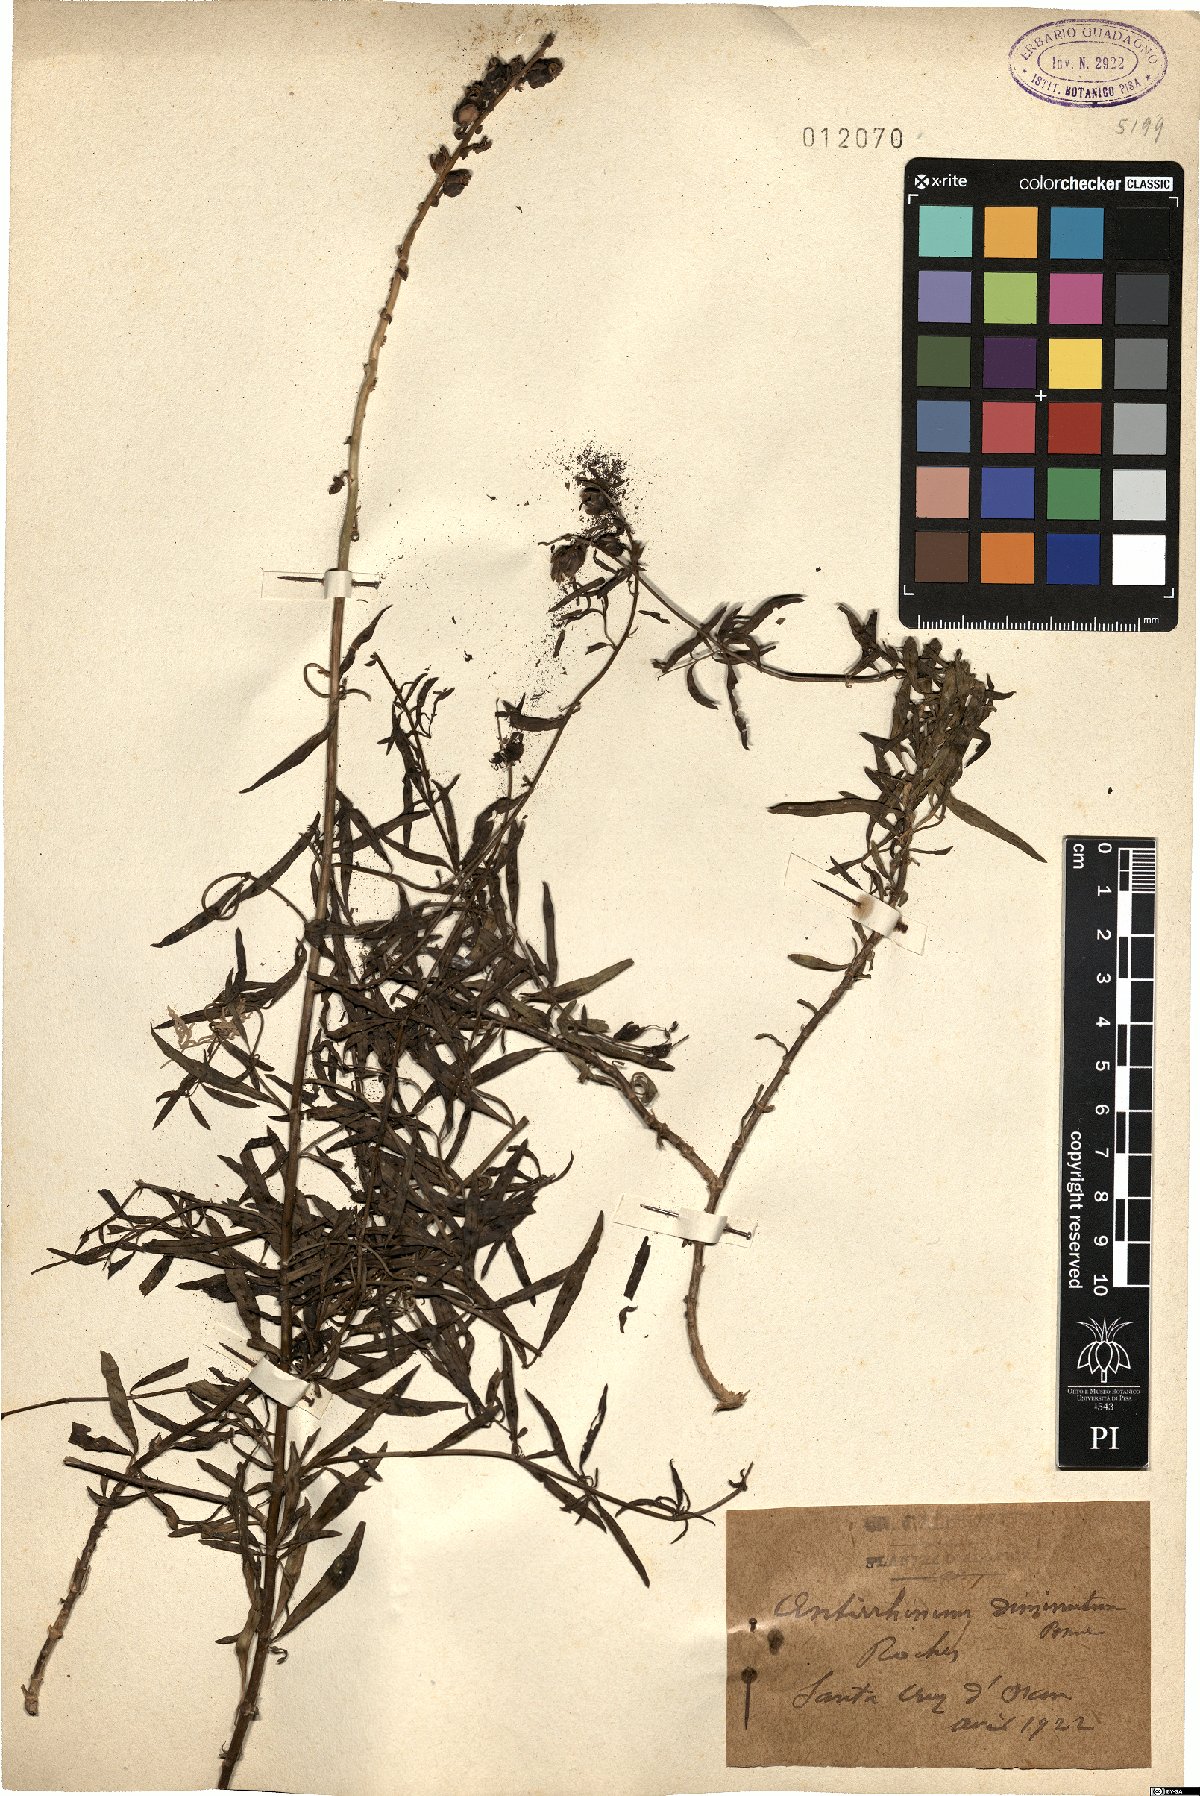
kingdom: Plantae
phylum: Tracheophyta
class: Magnoliopsida
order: Lamiales
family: Plantaginaceae
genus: Antirrhinum
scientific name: Antirrhinum tortuosum
